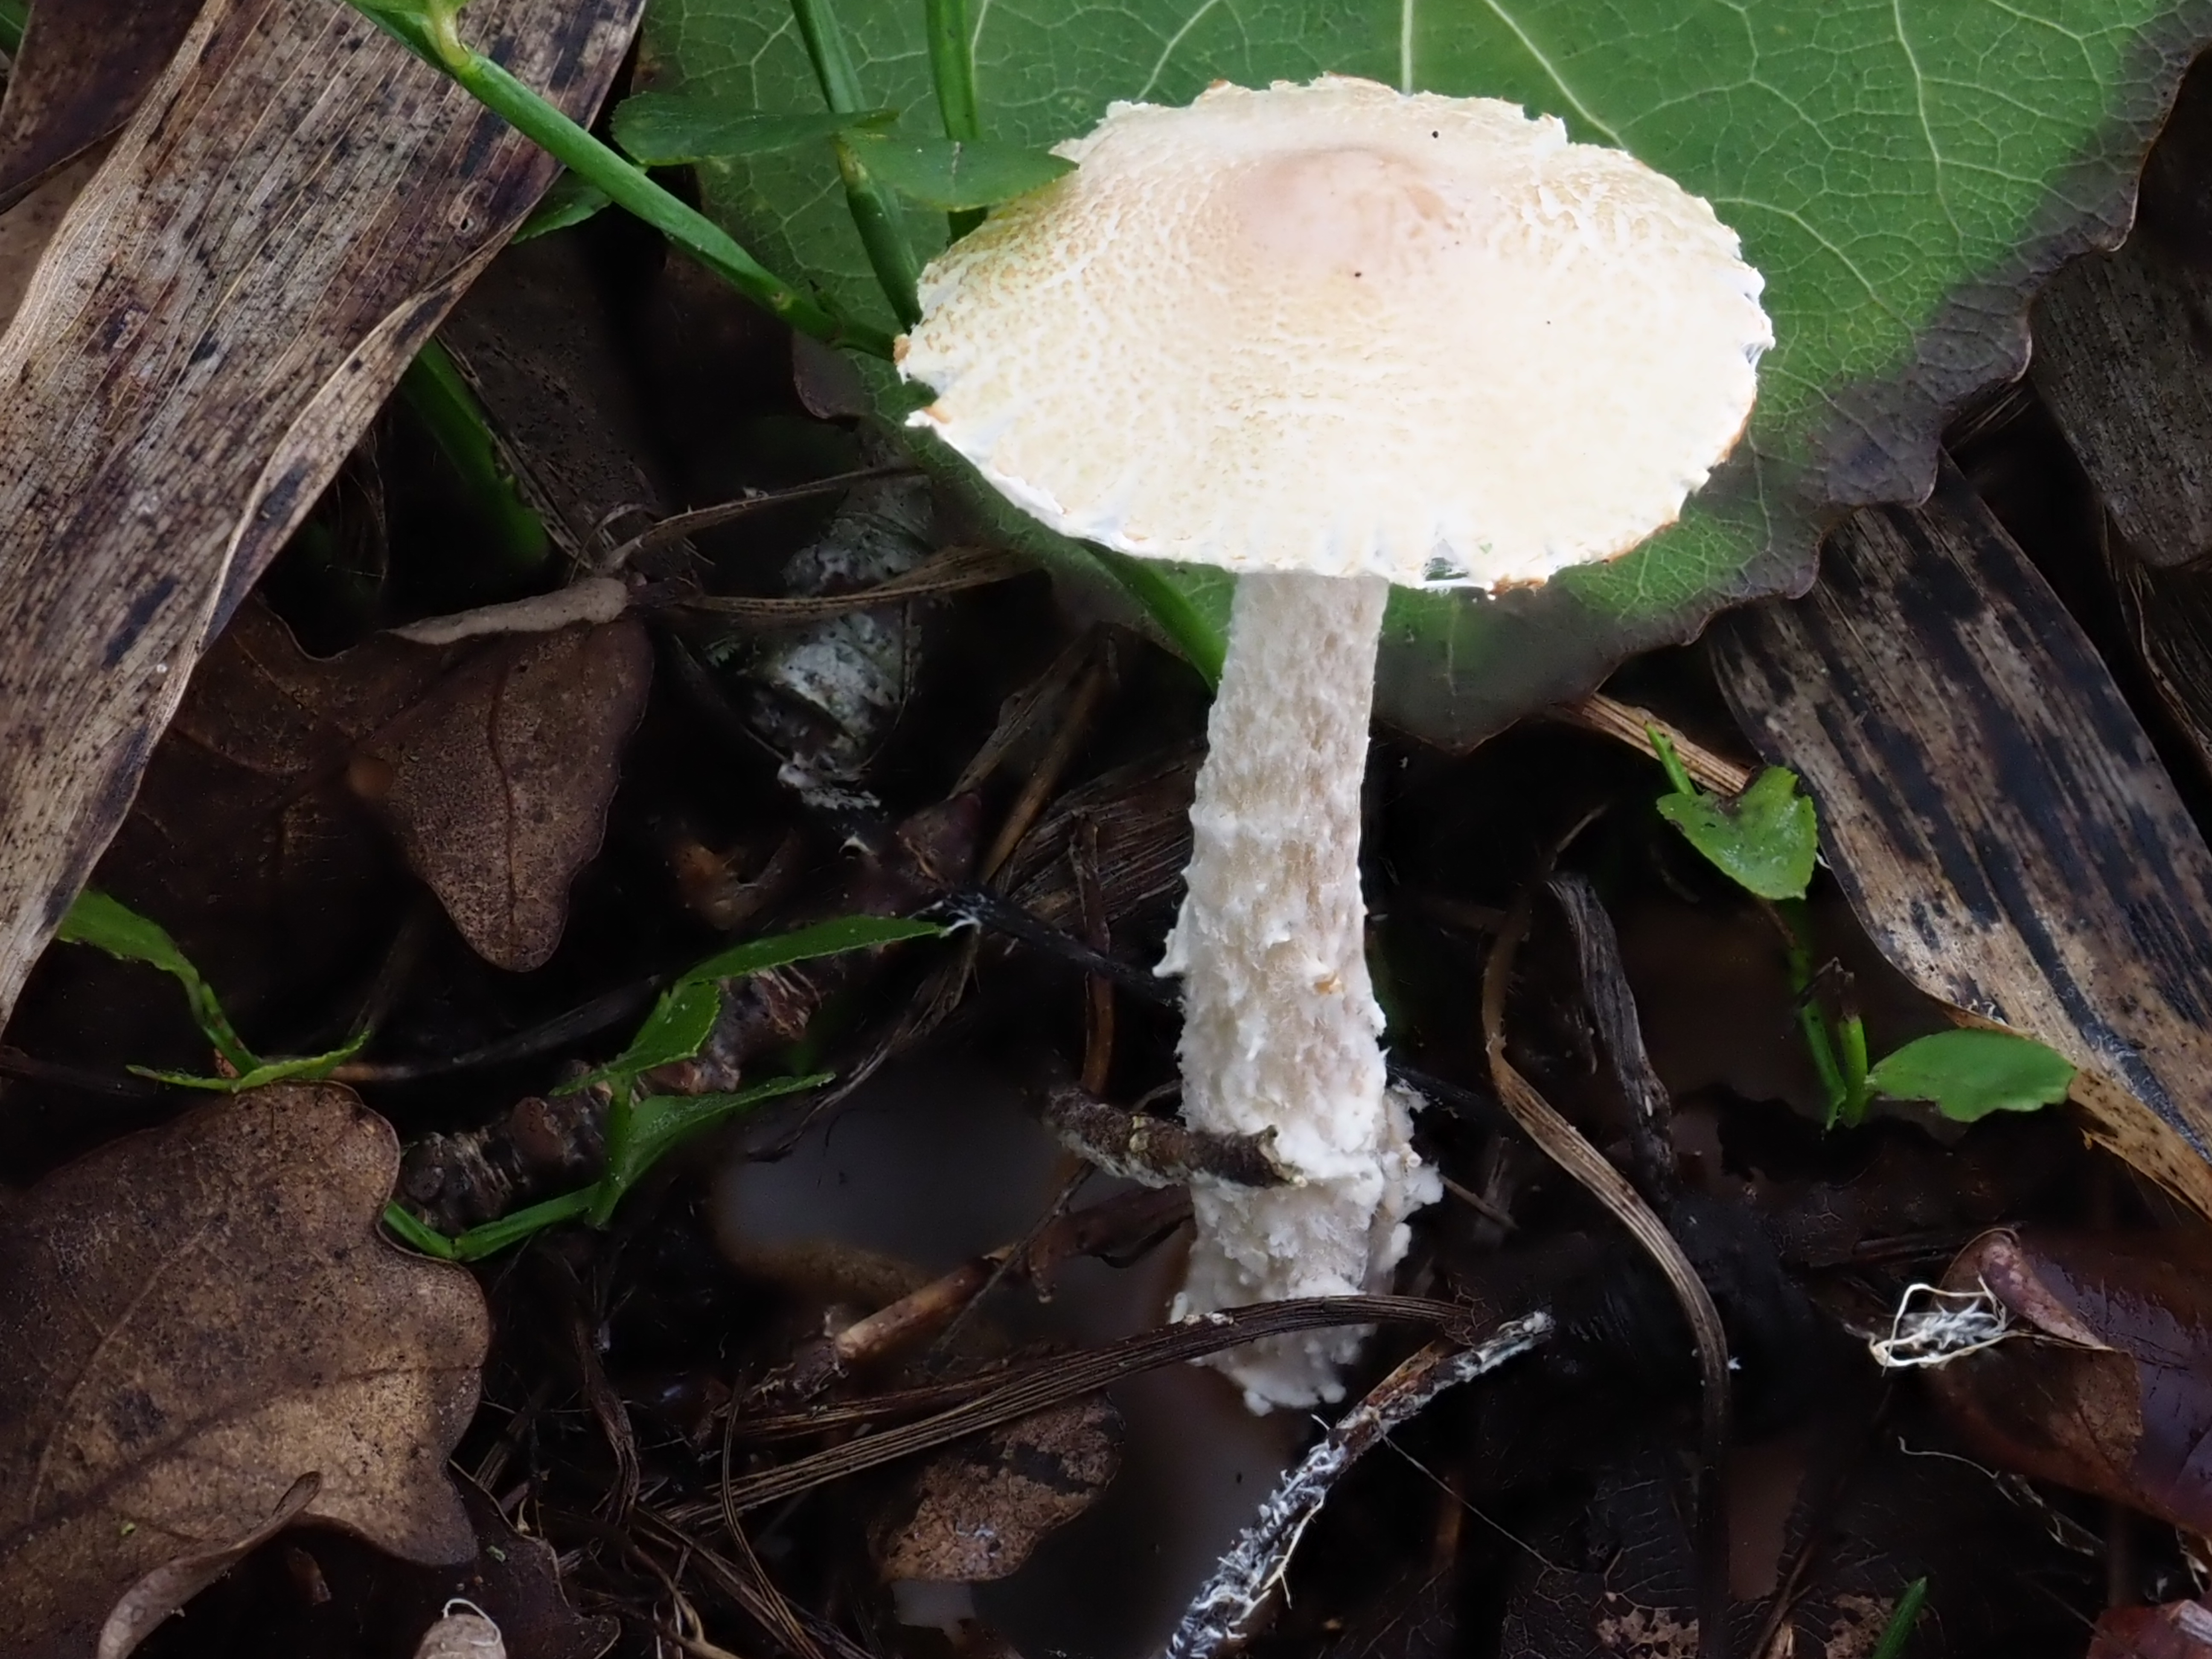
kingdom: Fungi
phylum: Basidiomycota
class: Agaricomycetes
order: Agaricales
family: Tricholomataceae
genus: Cystoderma
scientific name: Cystoderma carcharias
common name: Pearly powdercap
